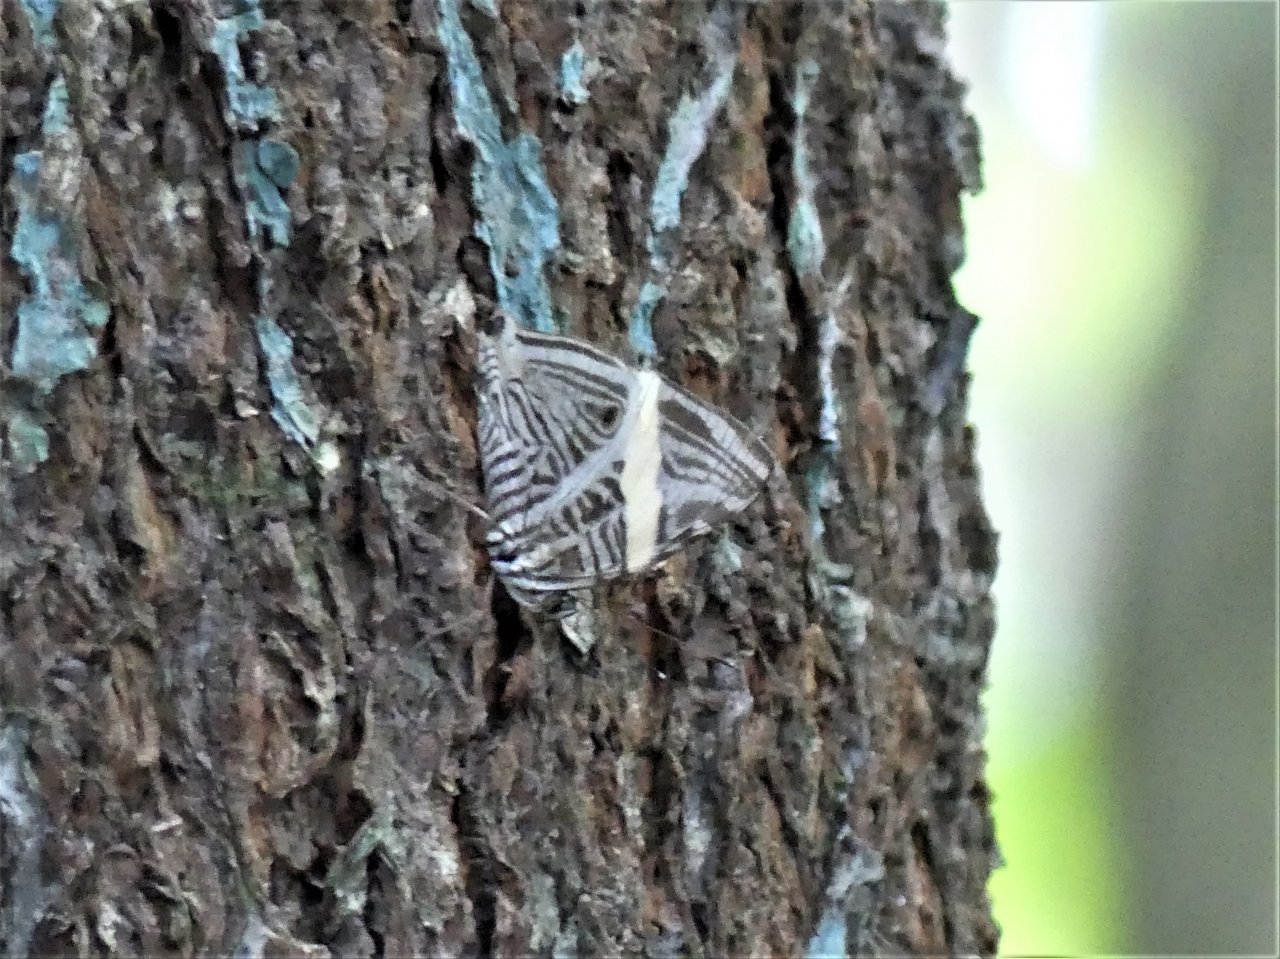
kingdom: Animalia
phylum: Arthropoda
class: Insecta
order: Lepidoptera
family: Nymphalidae
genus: Colobura
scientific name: Colobura annulata
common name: New Beauty
